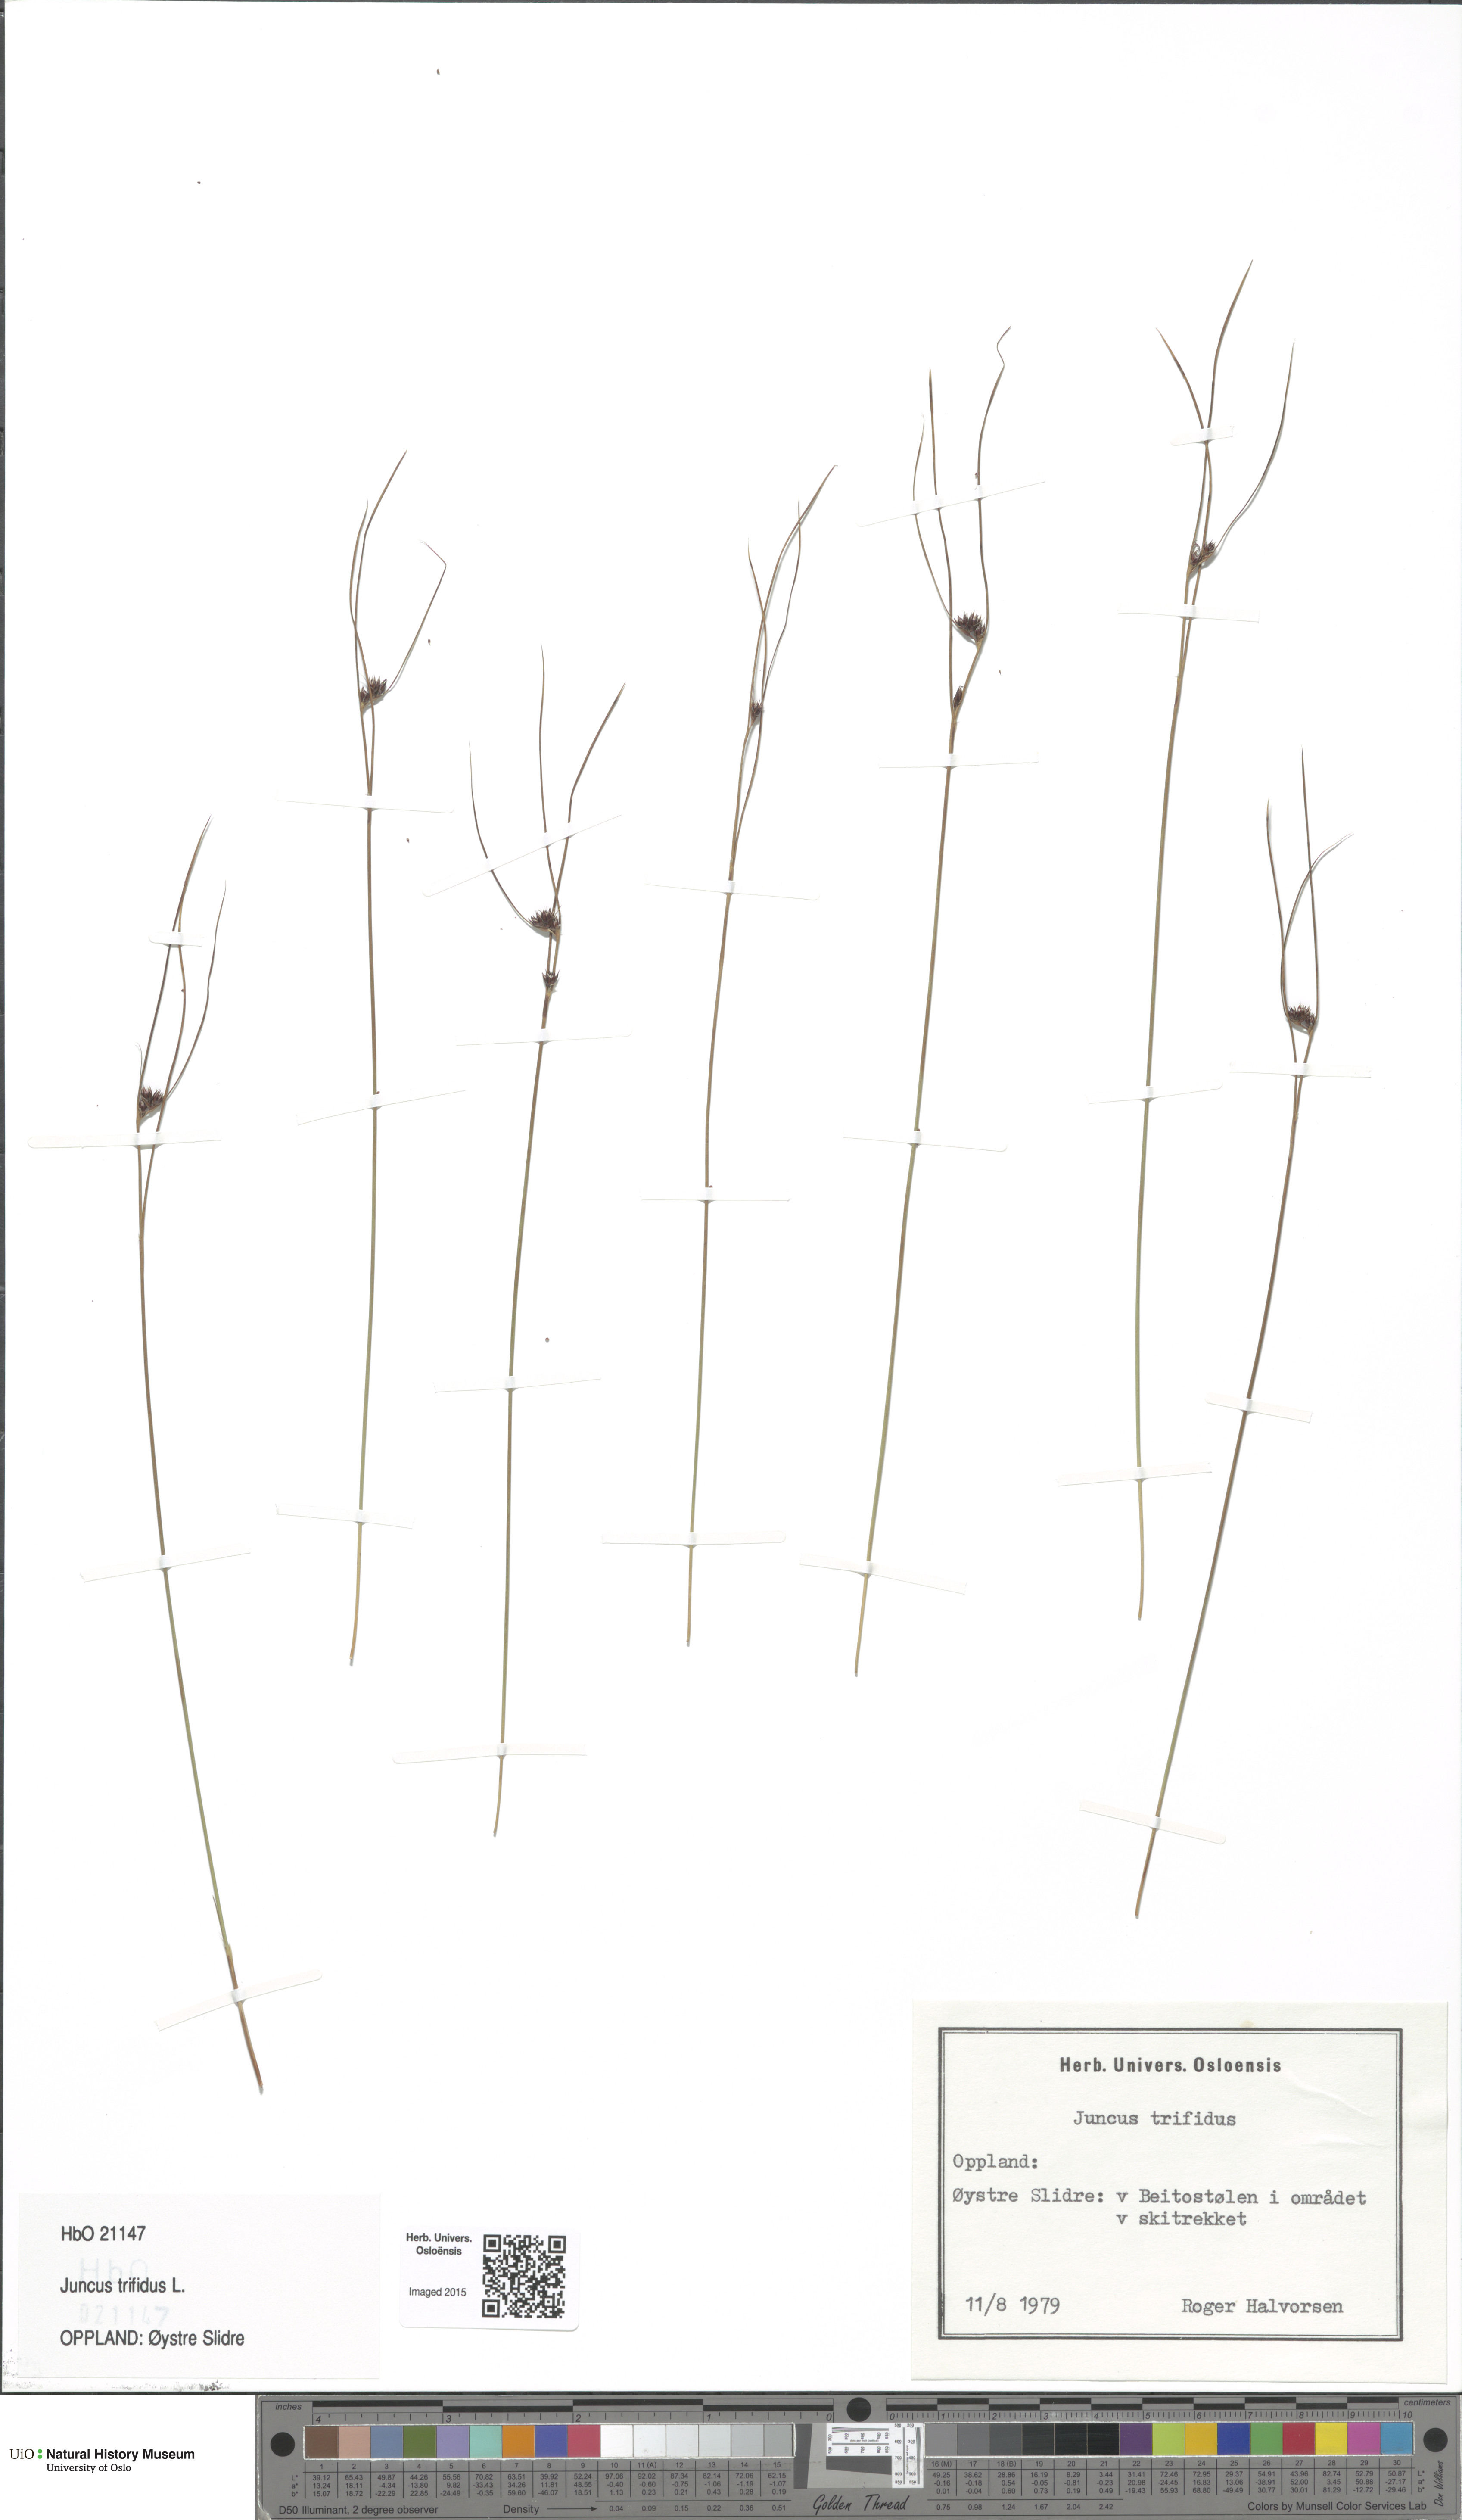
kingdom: Plantae
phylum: Tracheophyta
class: Liliopsida
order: Poales
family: Juncaceae
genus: Oreojuncus
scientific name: Oreojuncus trifidus
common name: Highland rush
